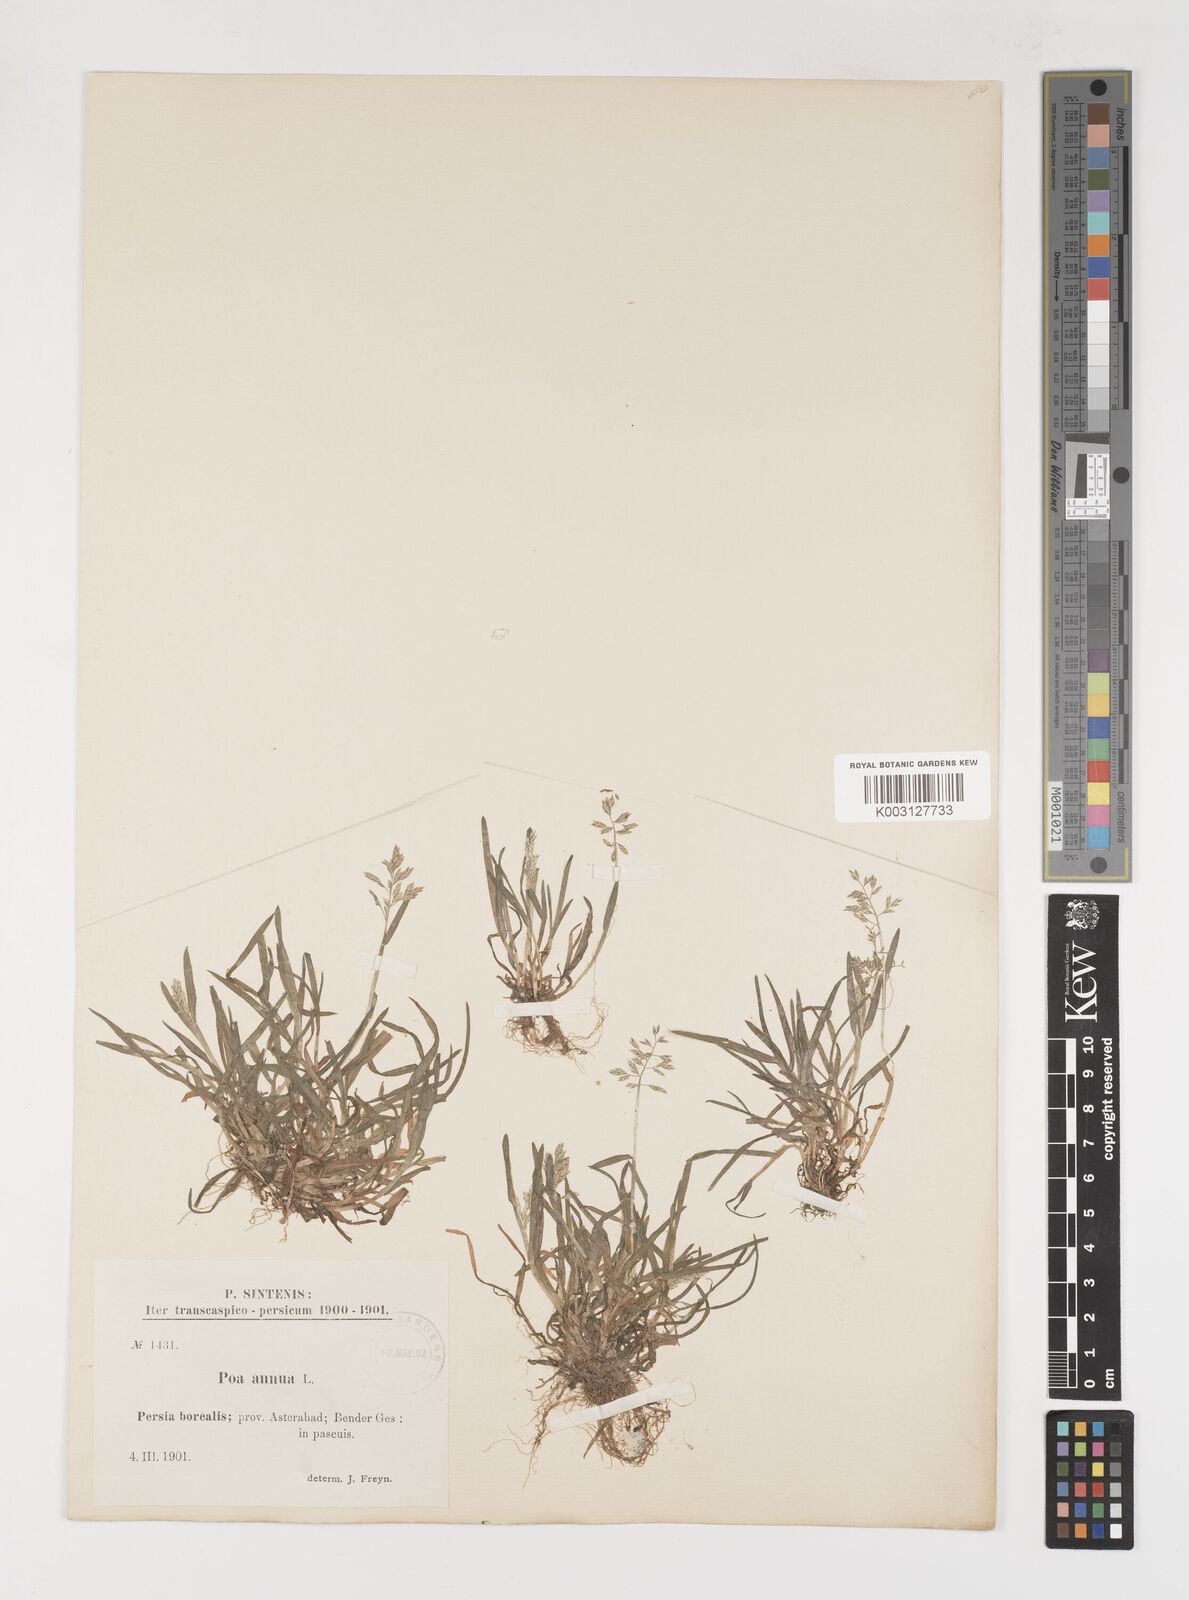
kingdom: Plantae
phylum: Tracheophyta
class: Liliopsida
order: Poales
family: Poaceae
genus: Poa
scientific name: Poa annua
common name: Annual bluegrass
